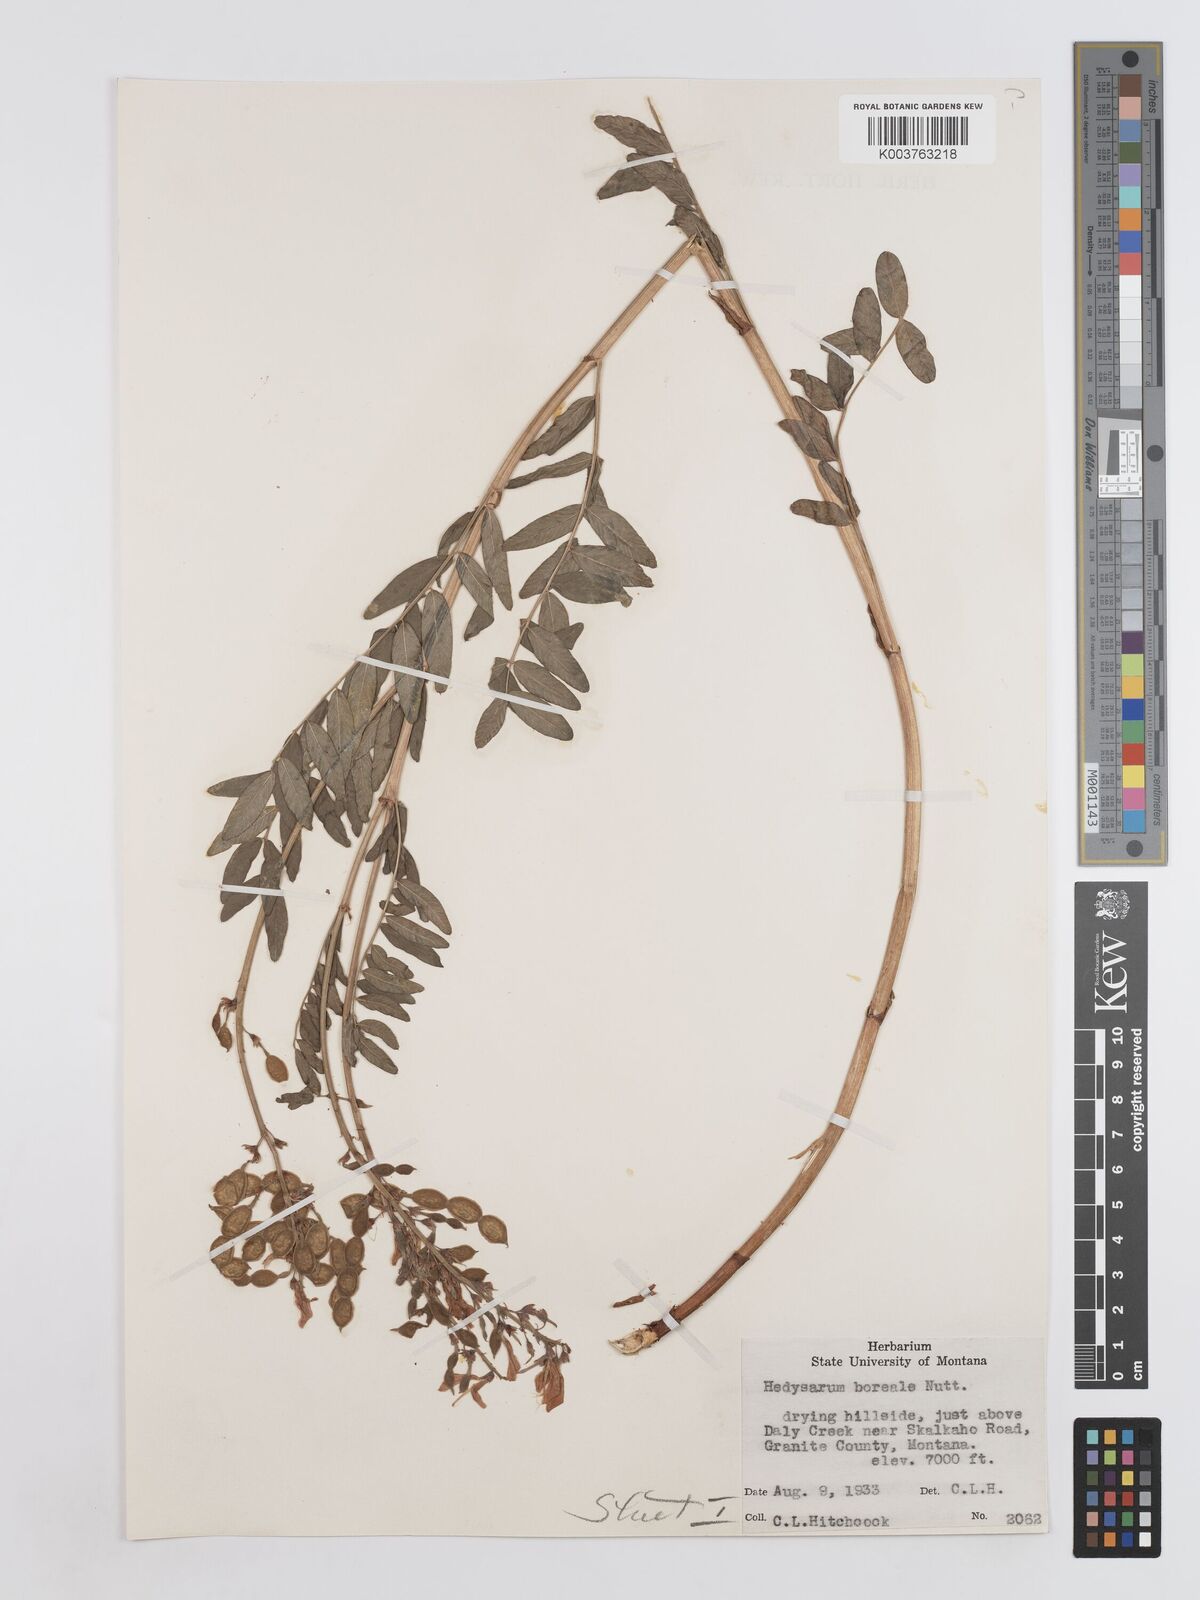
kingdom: Plantae
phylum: Tracheophyta
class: Magnoliopsida
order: Fabales
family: Fabaceae
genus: Hedysarum
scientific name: Hedysarum boreale
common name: Northern sweet-vetch
